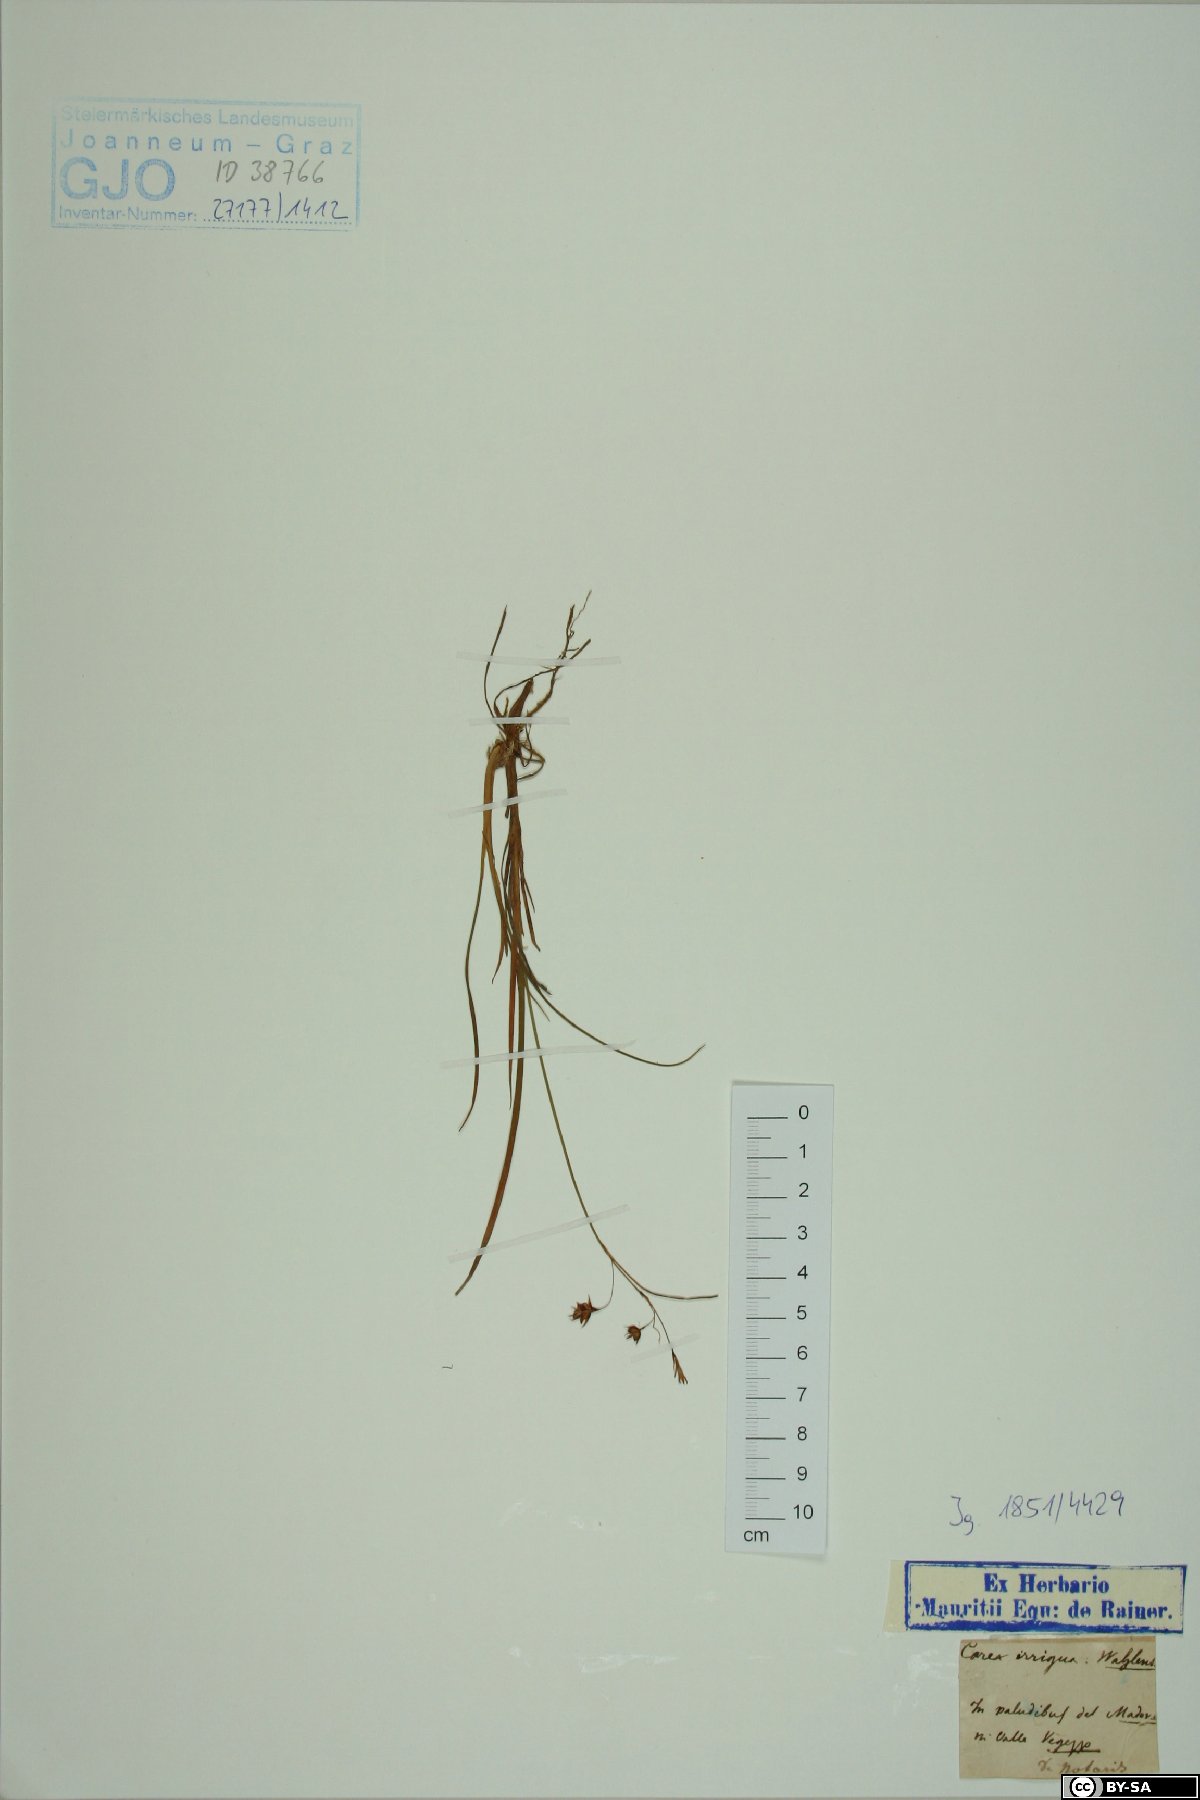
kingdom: Plantae
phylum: Tracheophyta
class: Liliopsida
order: Poales
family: Cyperaceae
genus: Carex
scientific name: Carex magellanica
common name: Bog sedge
